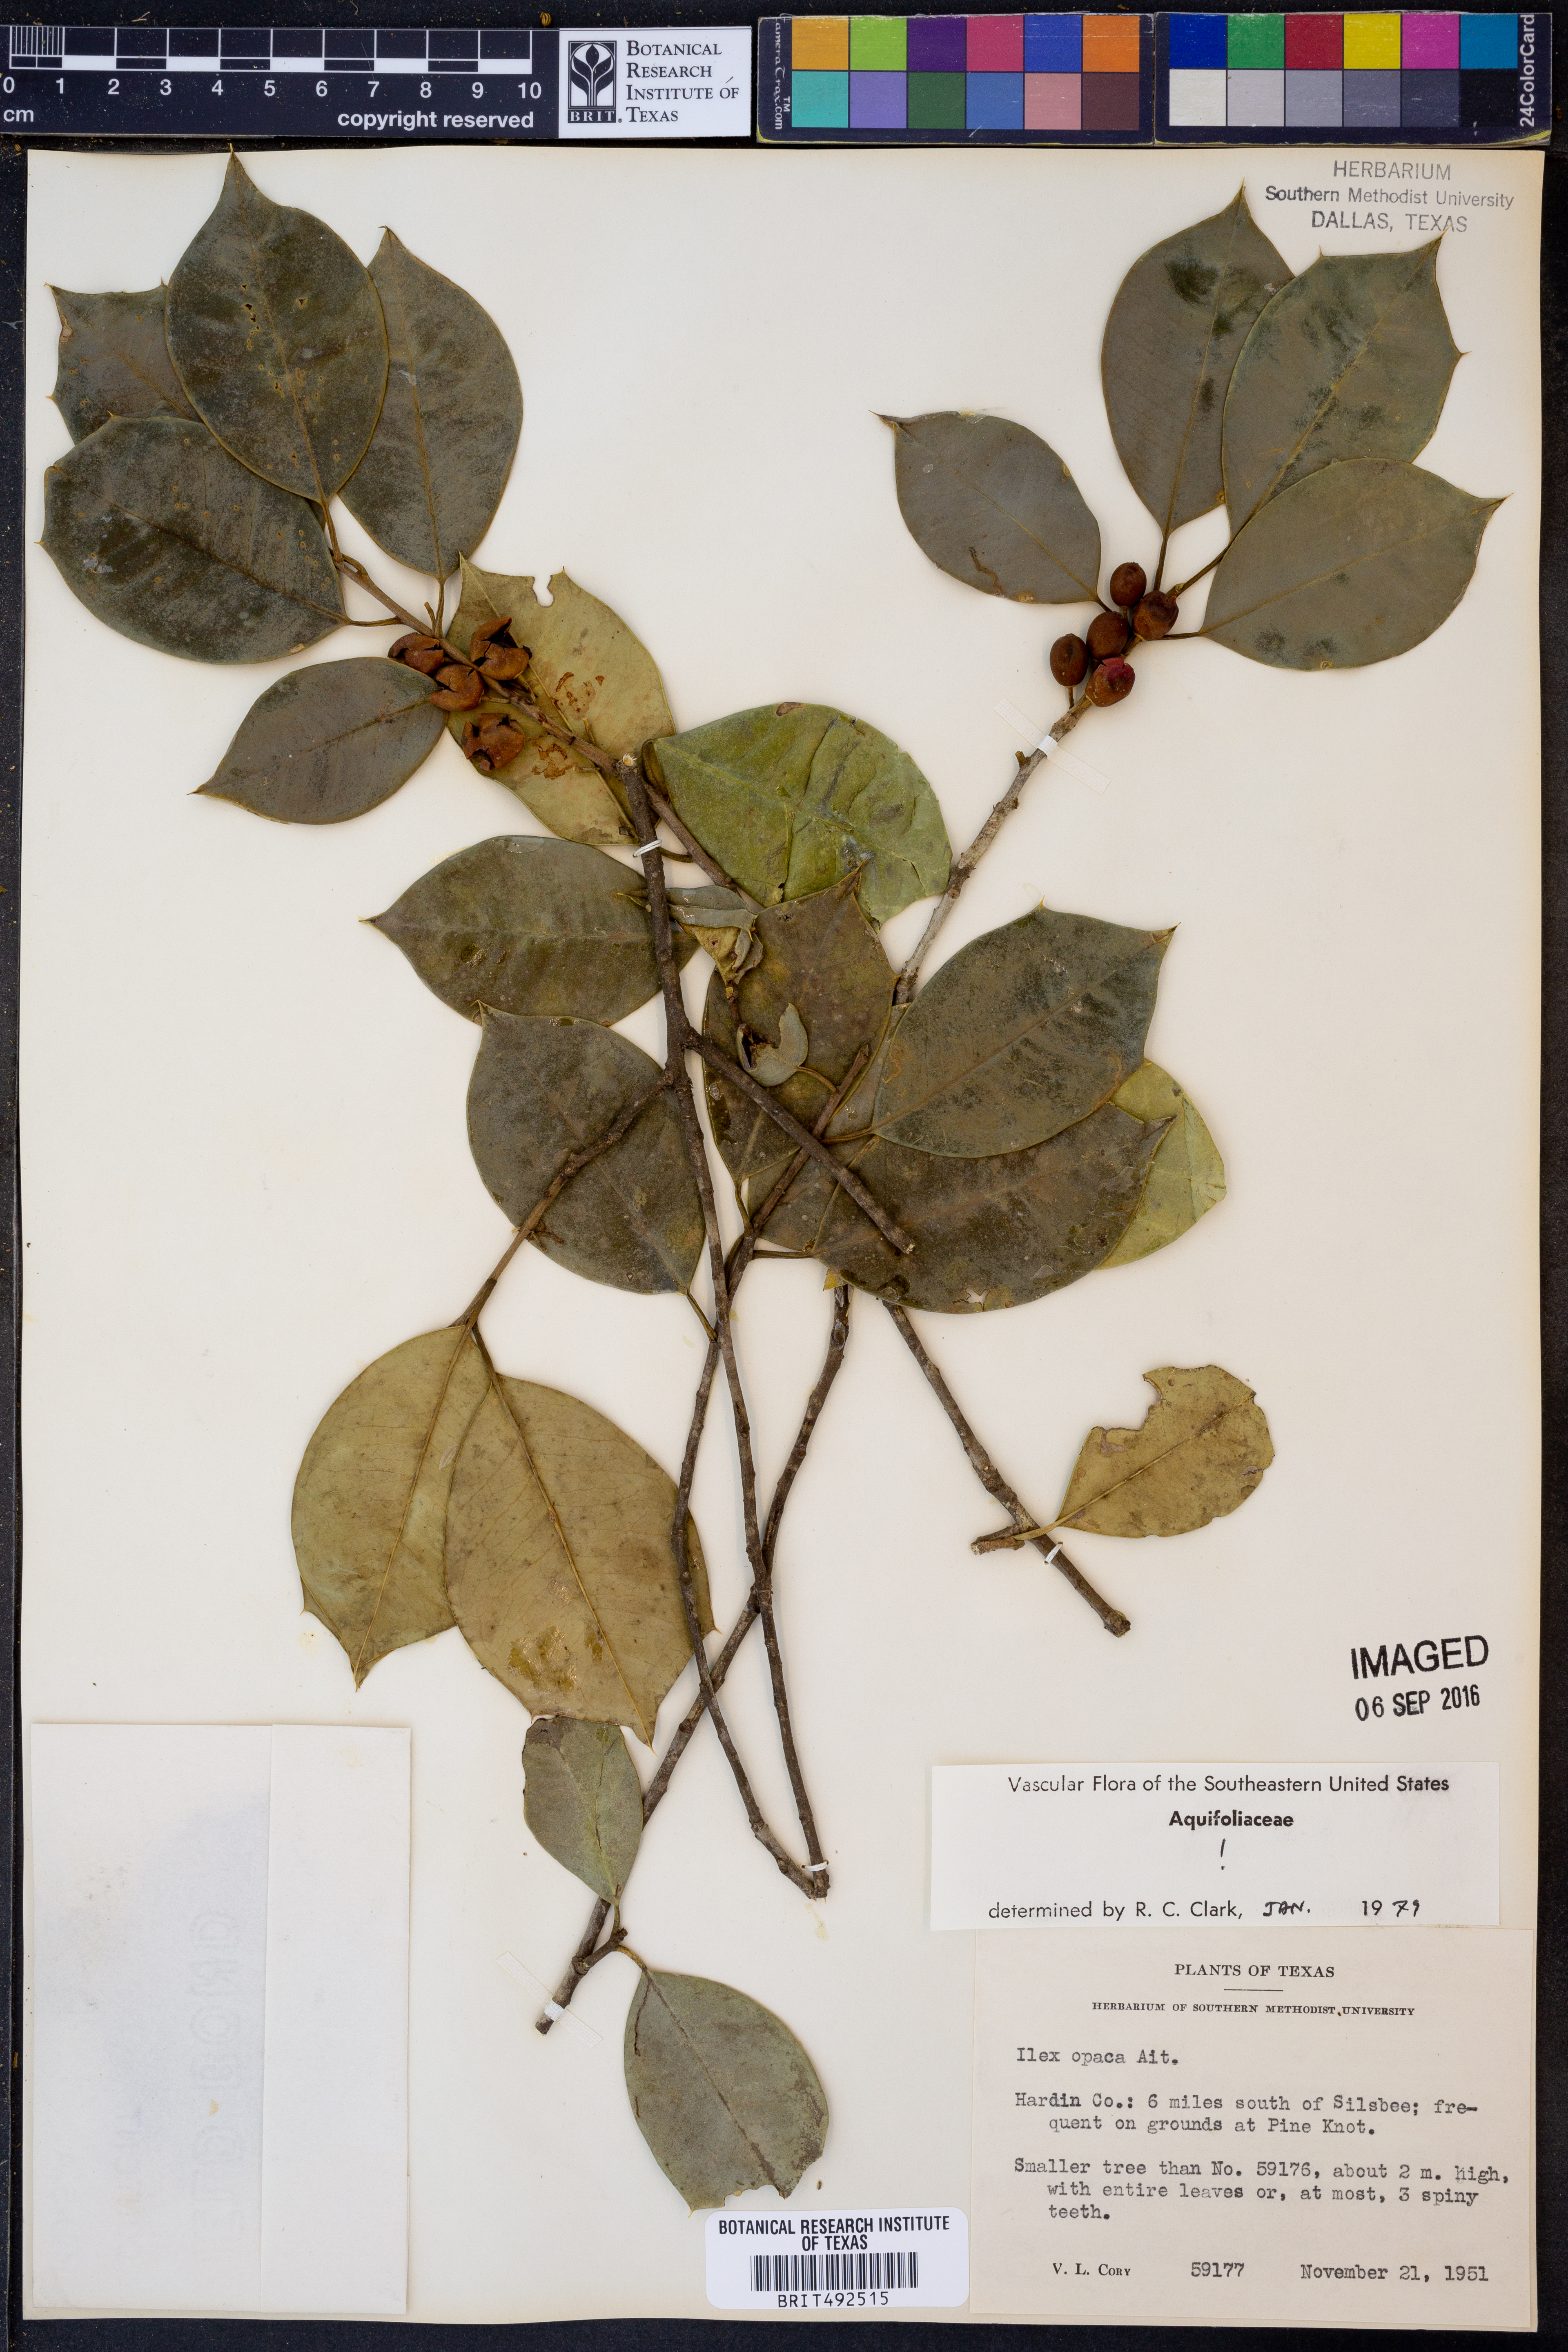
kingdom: Plantae
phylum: Tracheophyta
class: Magnoliopsida
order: Aquifoliales
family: Aquifoliaceae
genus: Ilex
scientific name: Ilex opaca
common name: American holly
